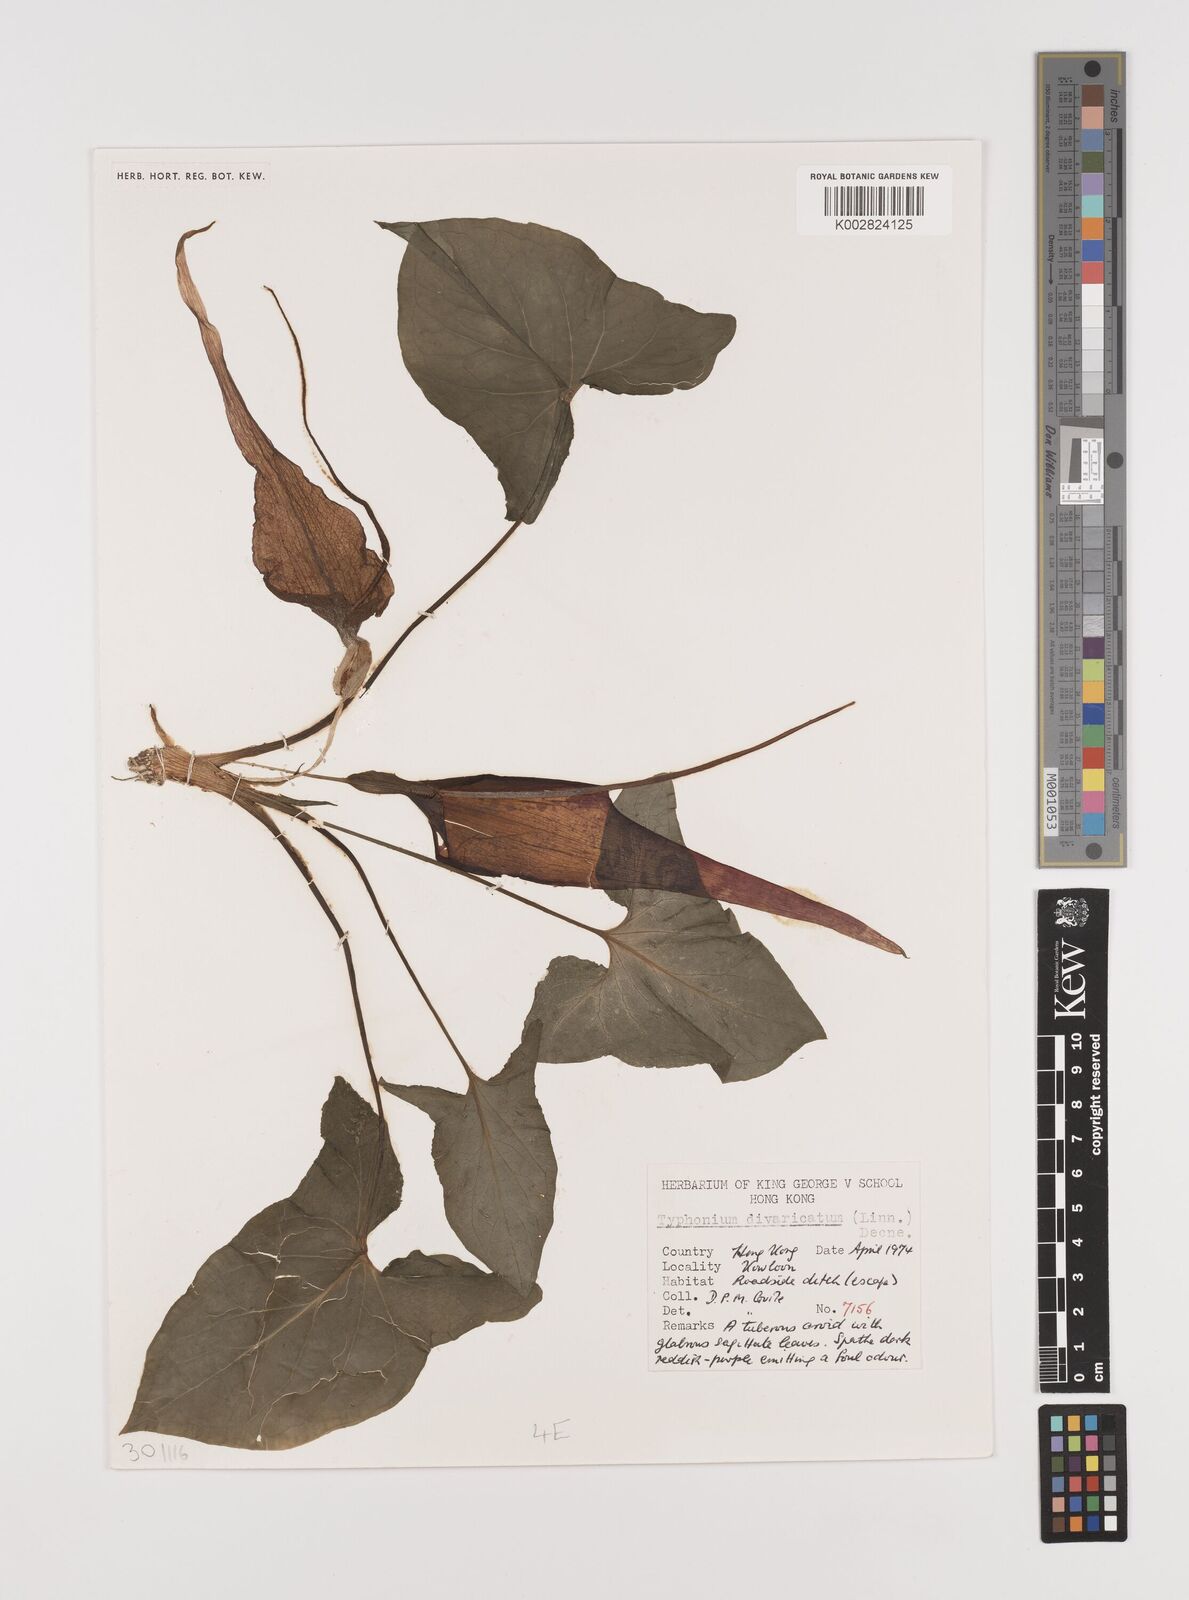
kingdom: Plantae
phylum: Tracheophyta
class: Liliopsida
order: Alismatales
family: Araceae
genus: Typhonium
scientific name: Typhonium roxburghii
